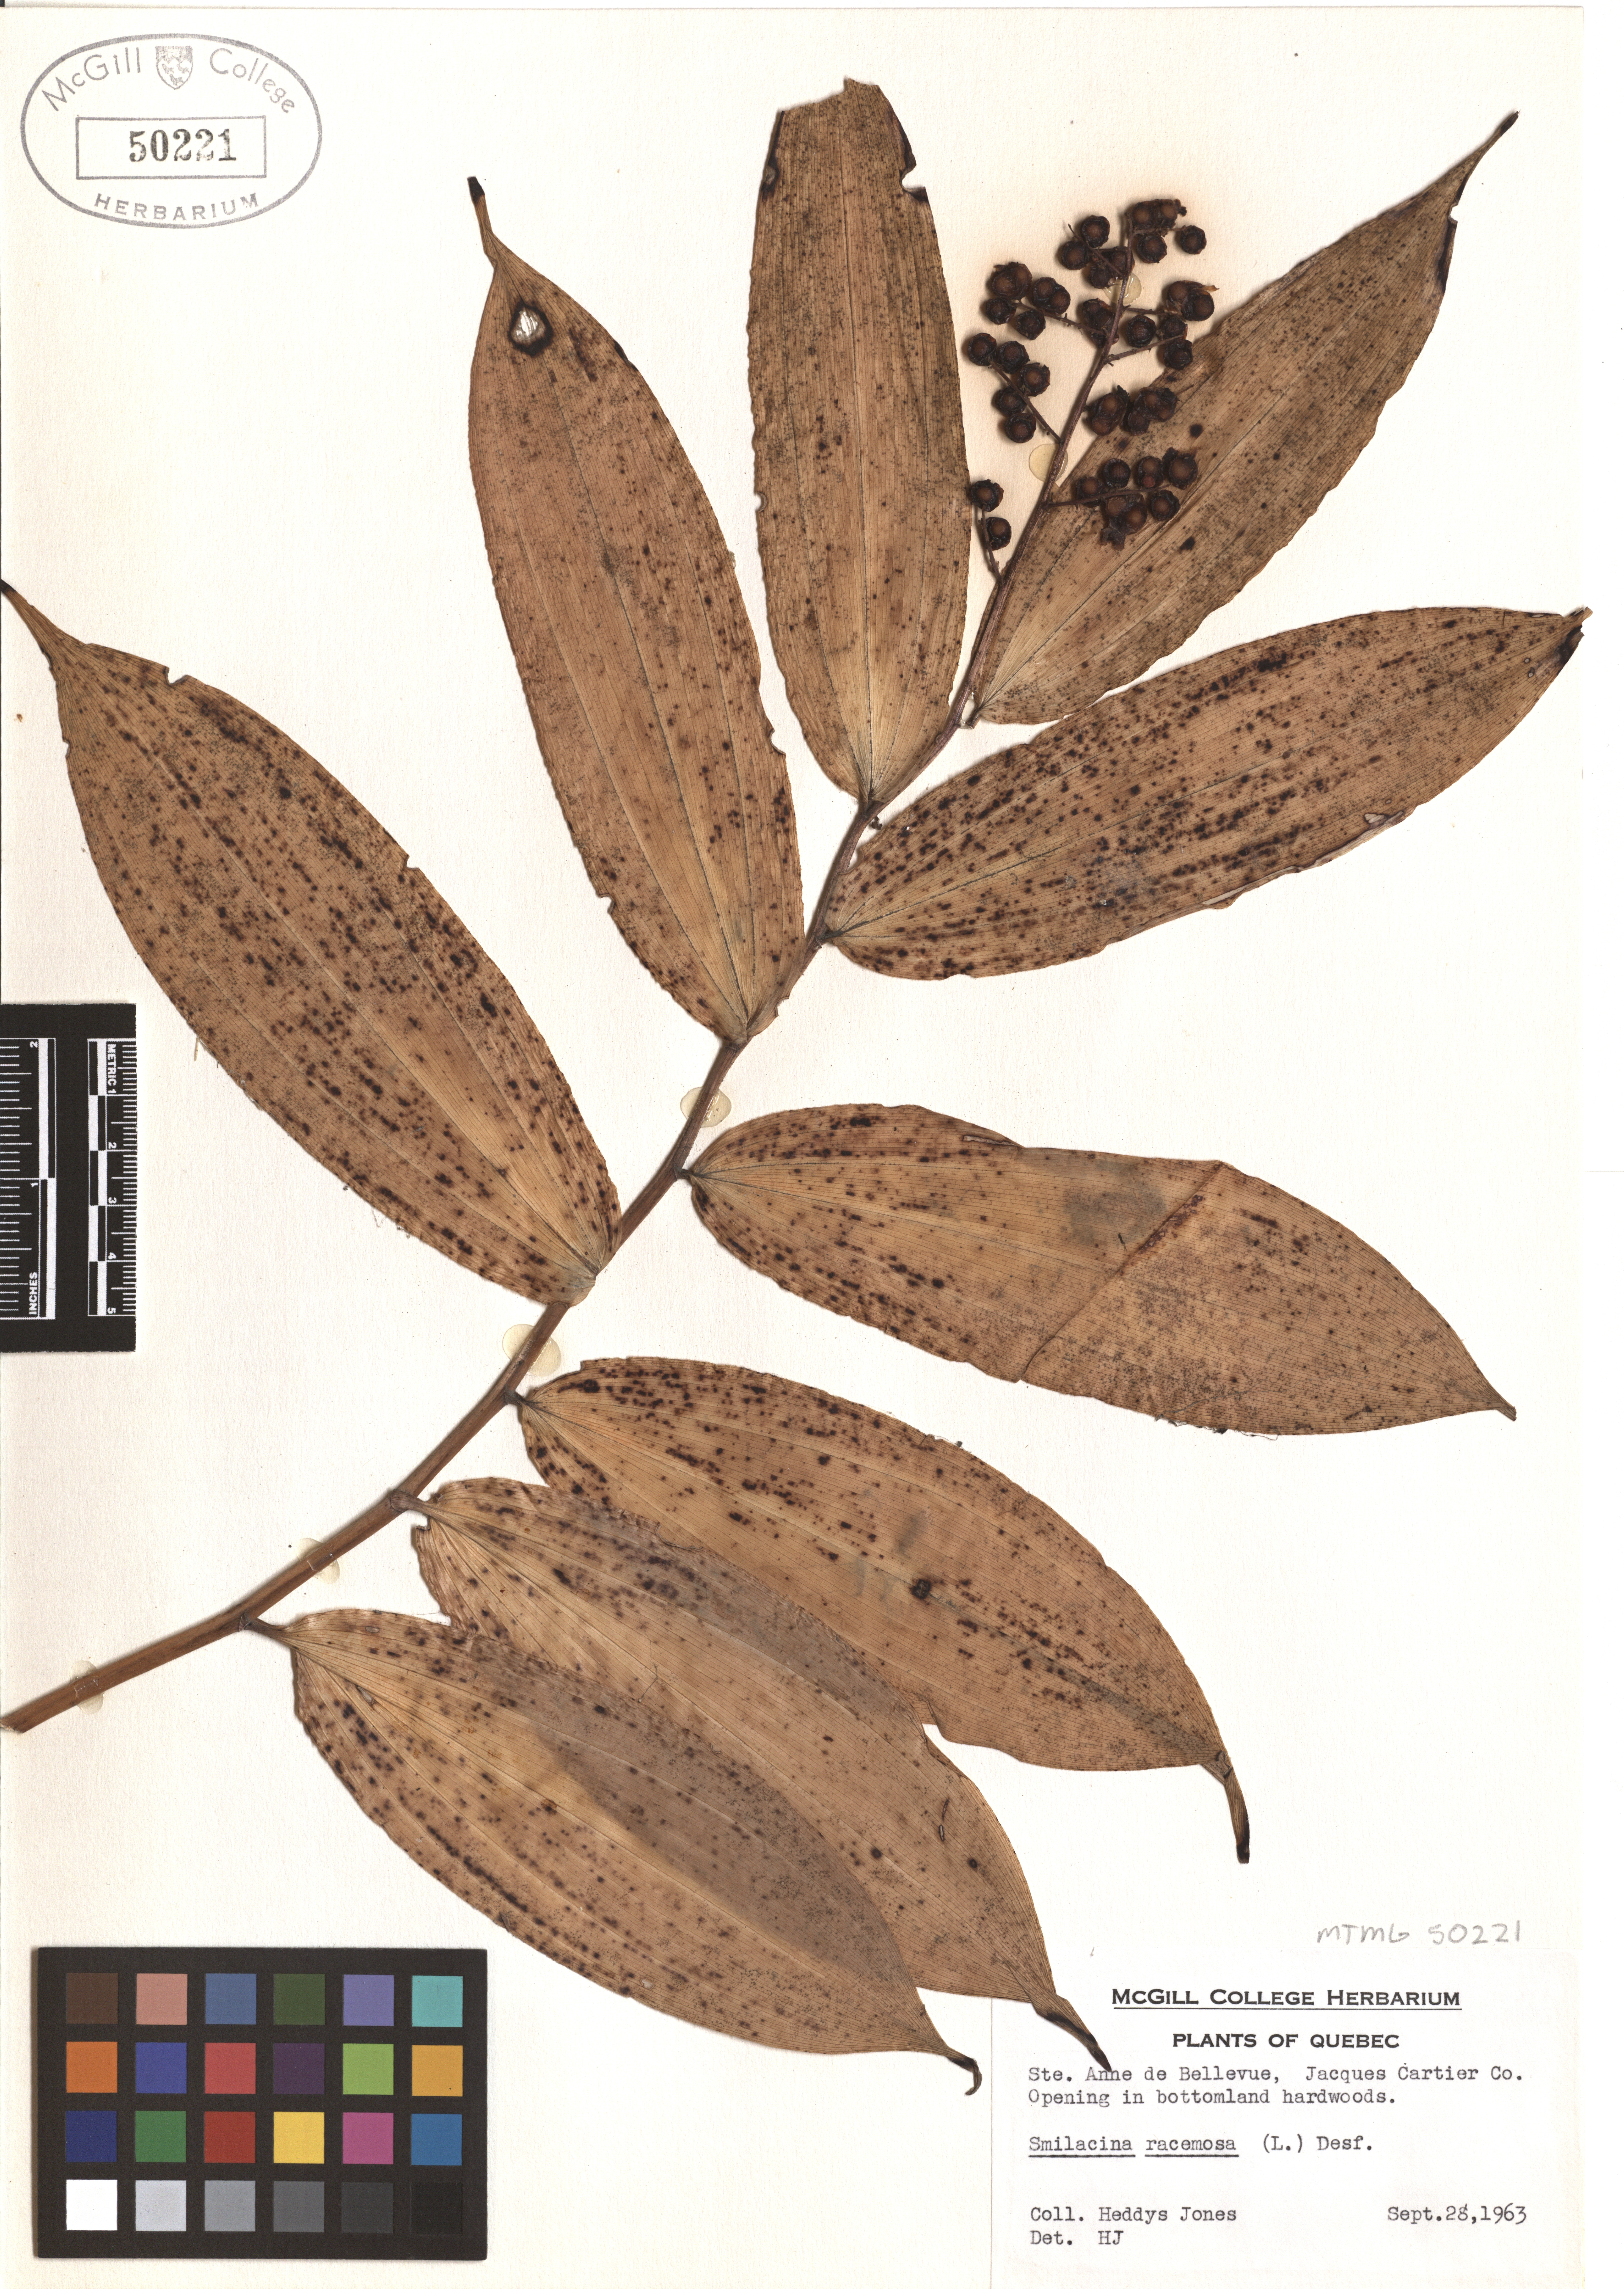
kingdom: Plantae
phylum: Tracheophyta
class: Liliopsida
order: Asparagales
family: Asparagaceae
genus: Maianthemum
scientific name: Maianthemum racemosum
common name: False spikenard
